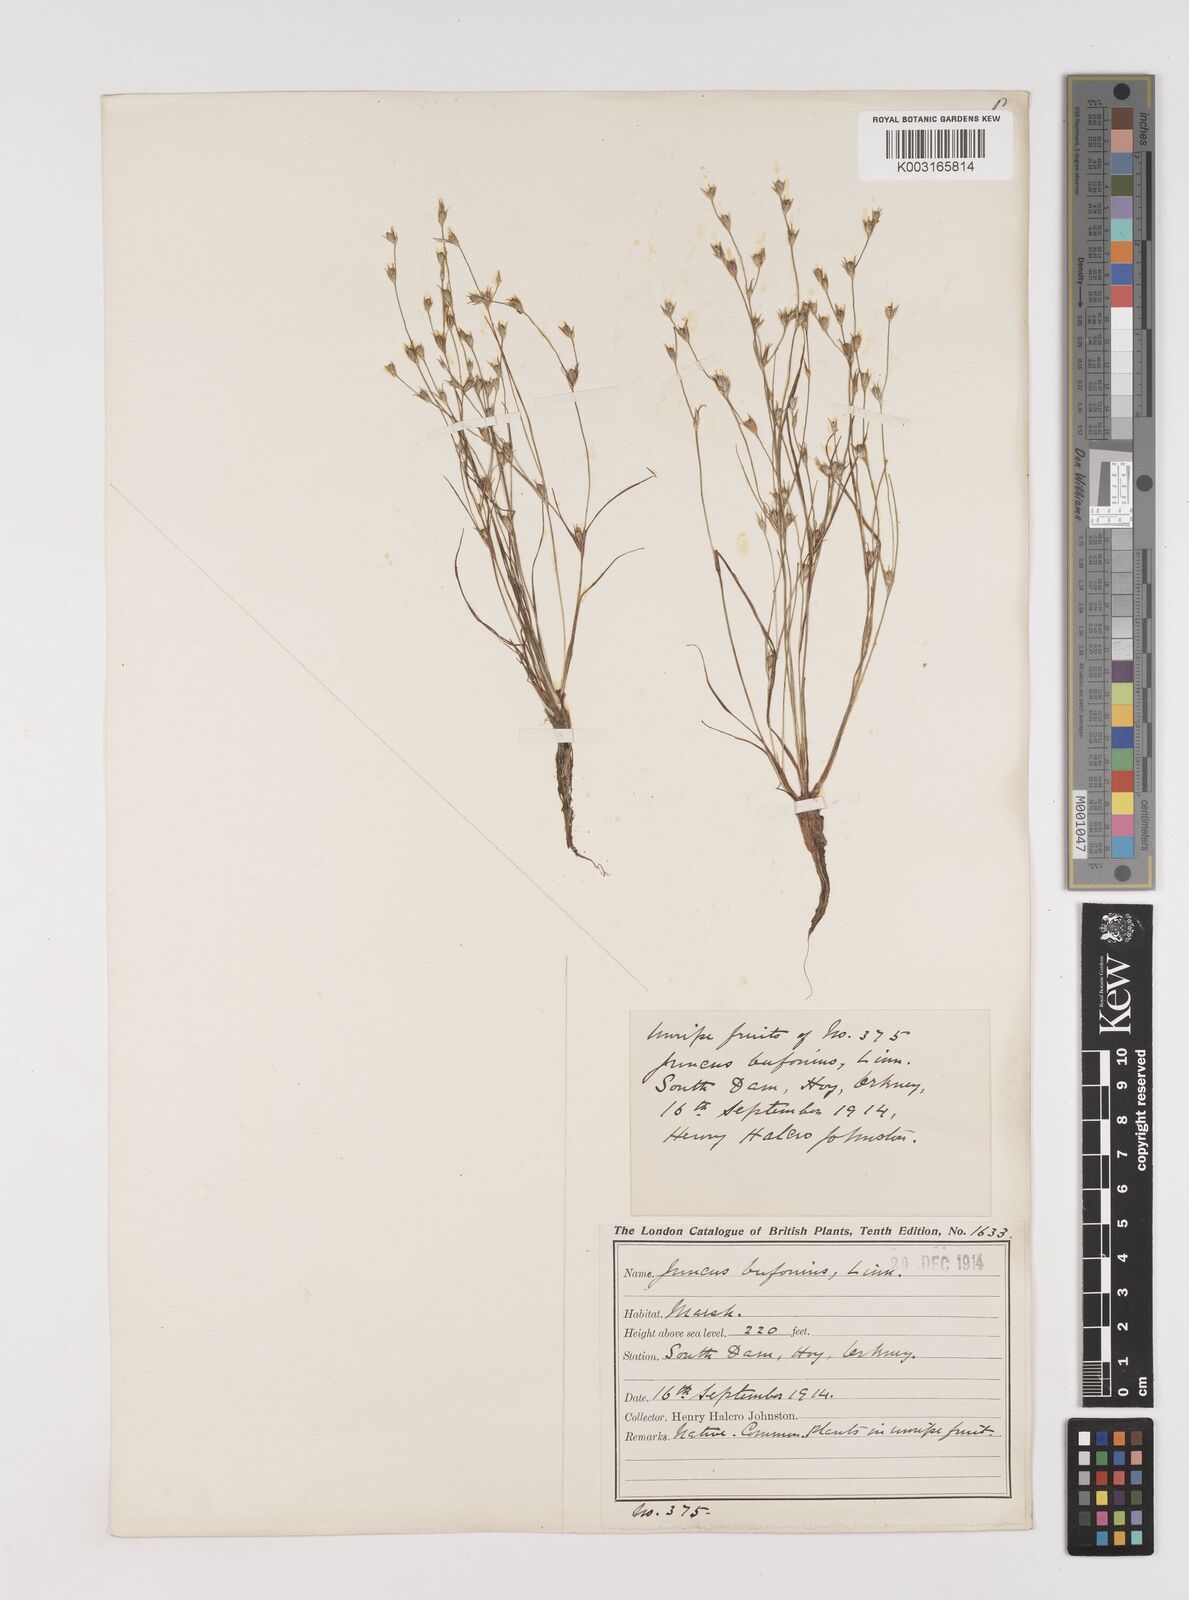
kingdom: Plantae
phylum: Tracheophyta
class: Liliopsida
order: Poales
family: Juncaceae
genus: Juncus
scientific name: Juncus bufonius
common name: Toad rush
